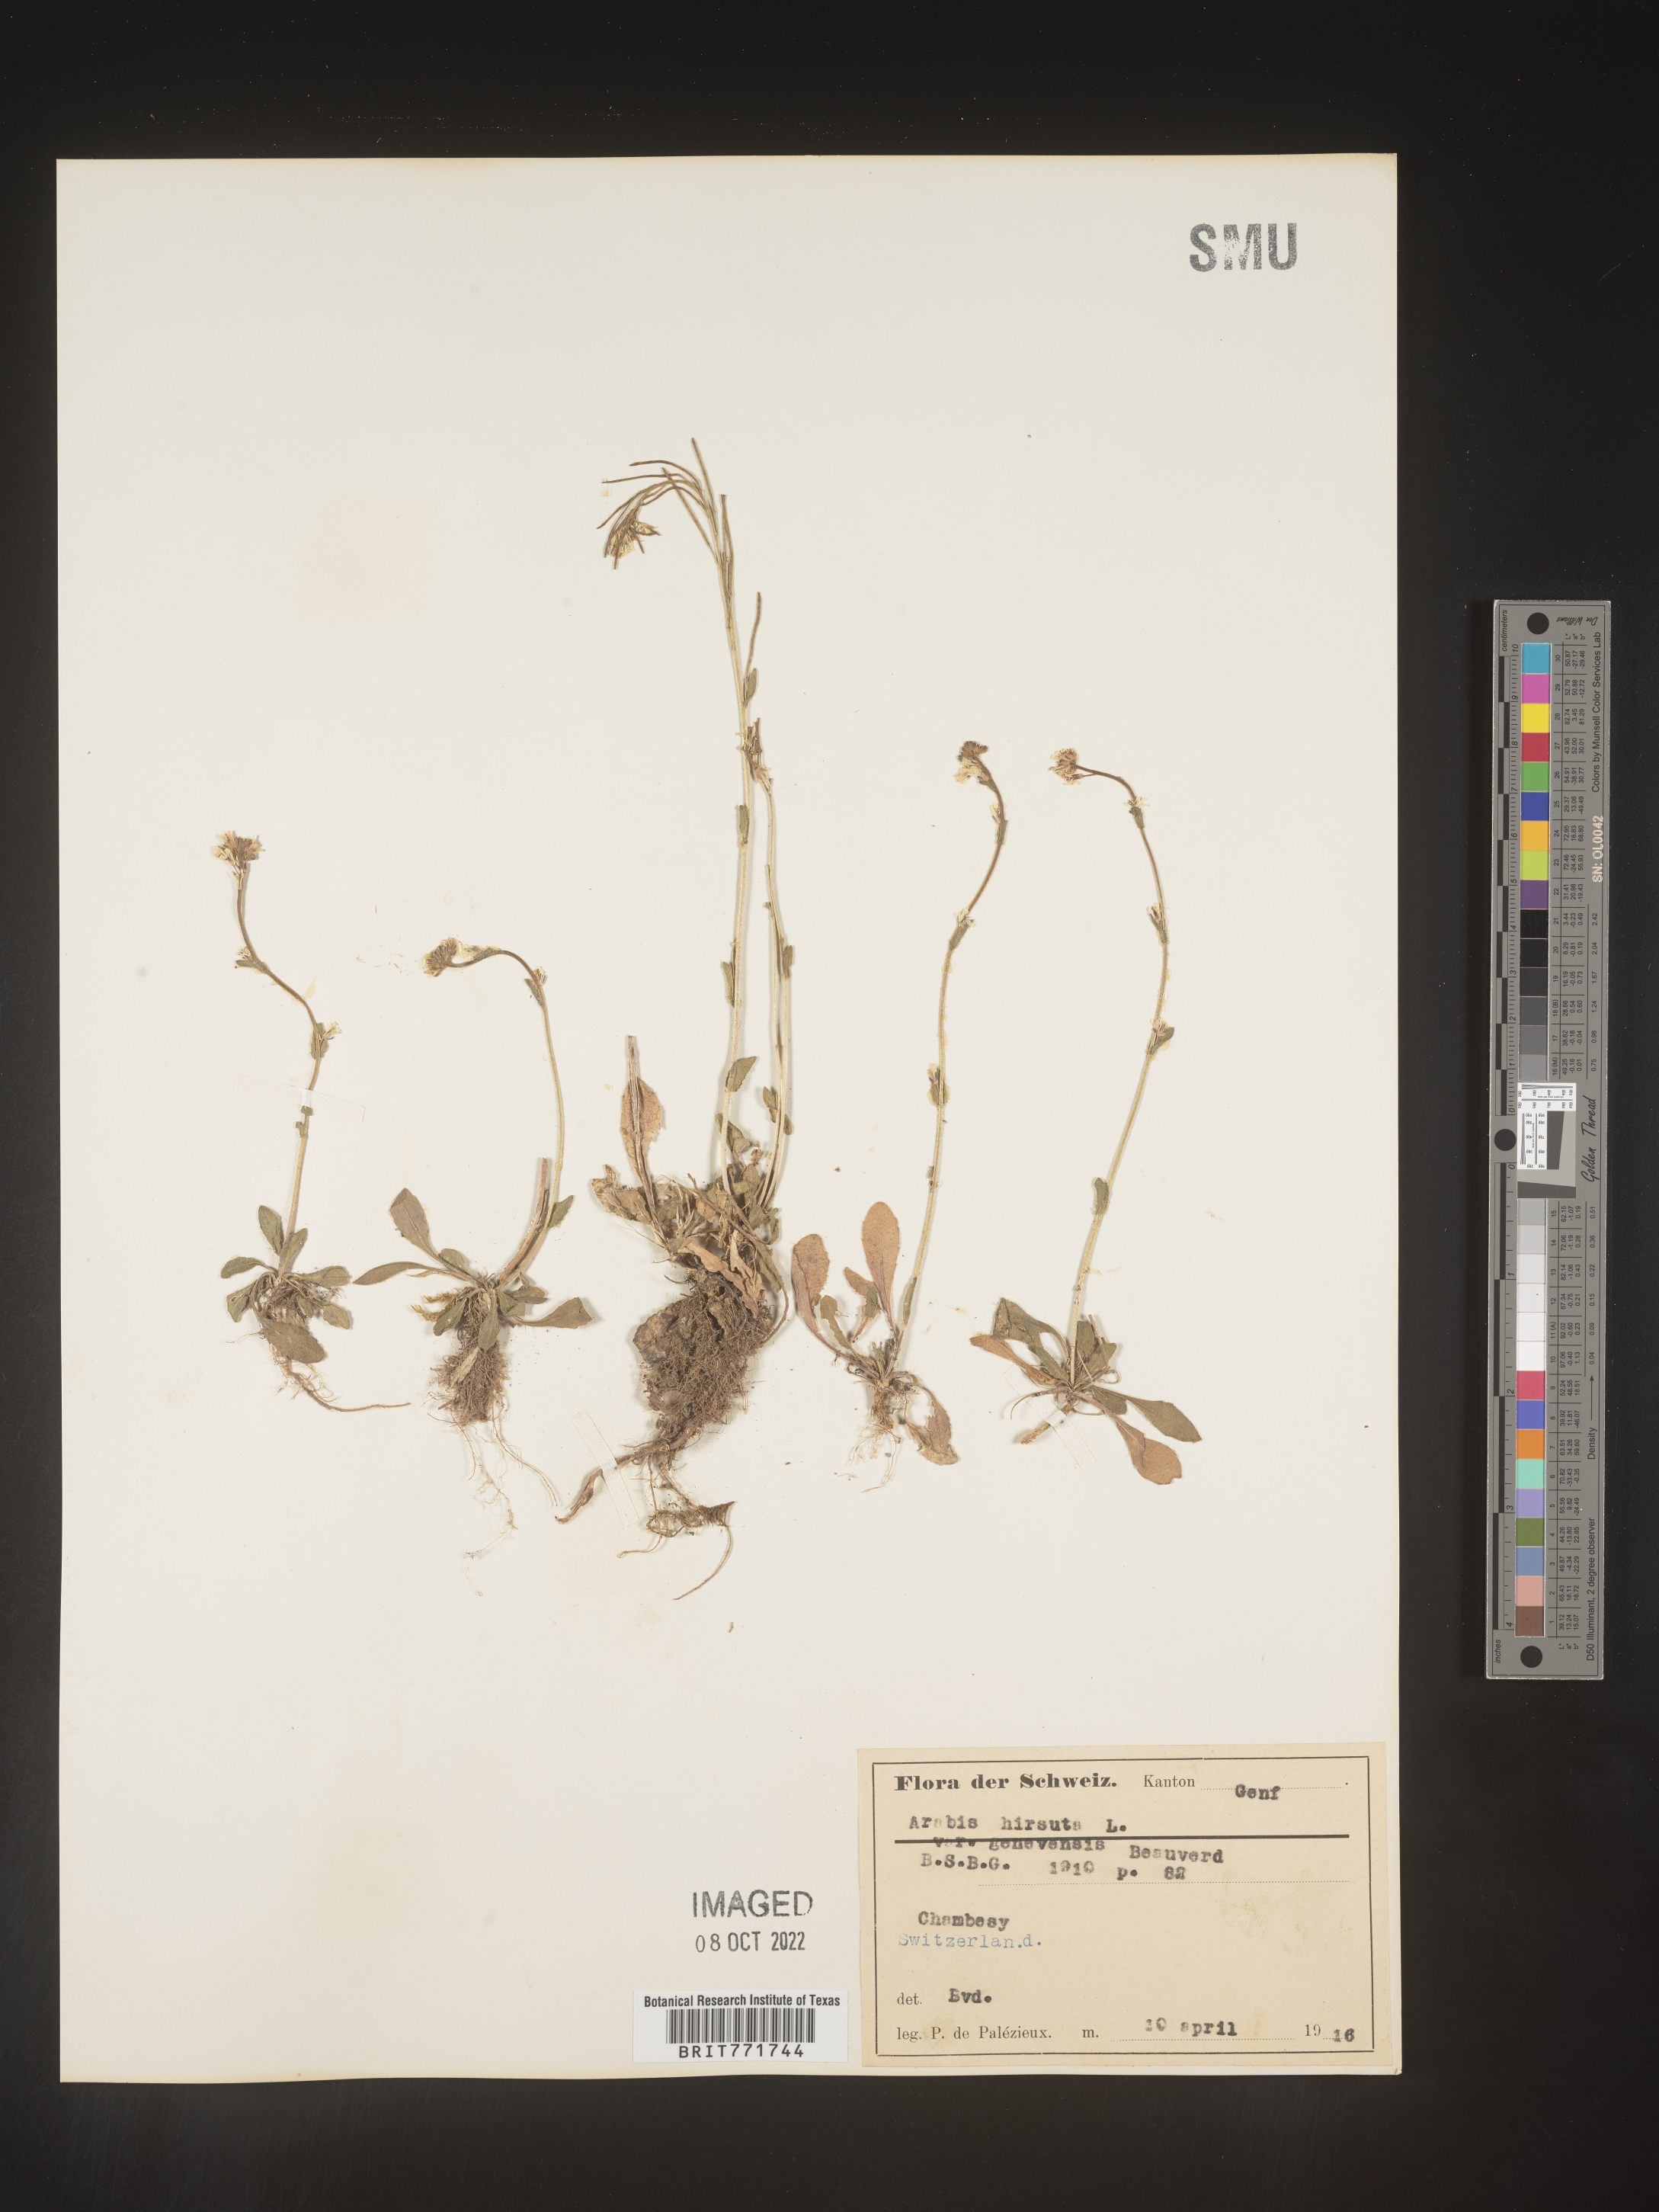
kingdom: Plantae
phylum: Tracheophyta
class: Magnoliopsida
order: Brassicales
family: Brassicaceae
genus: Arabis
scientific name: Arabis
